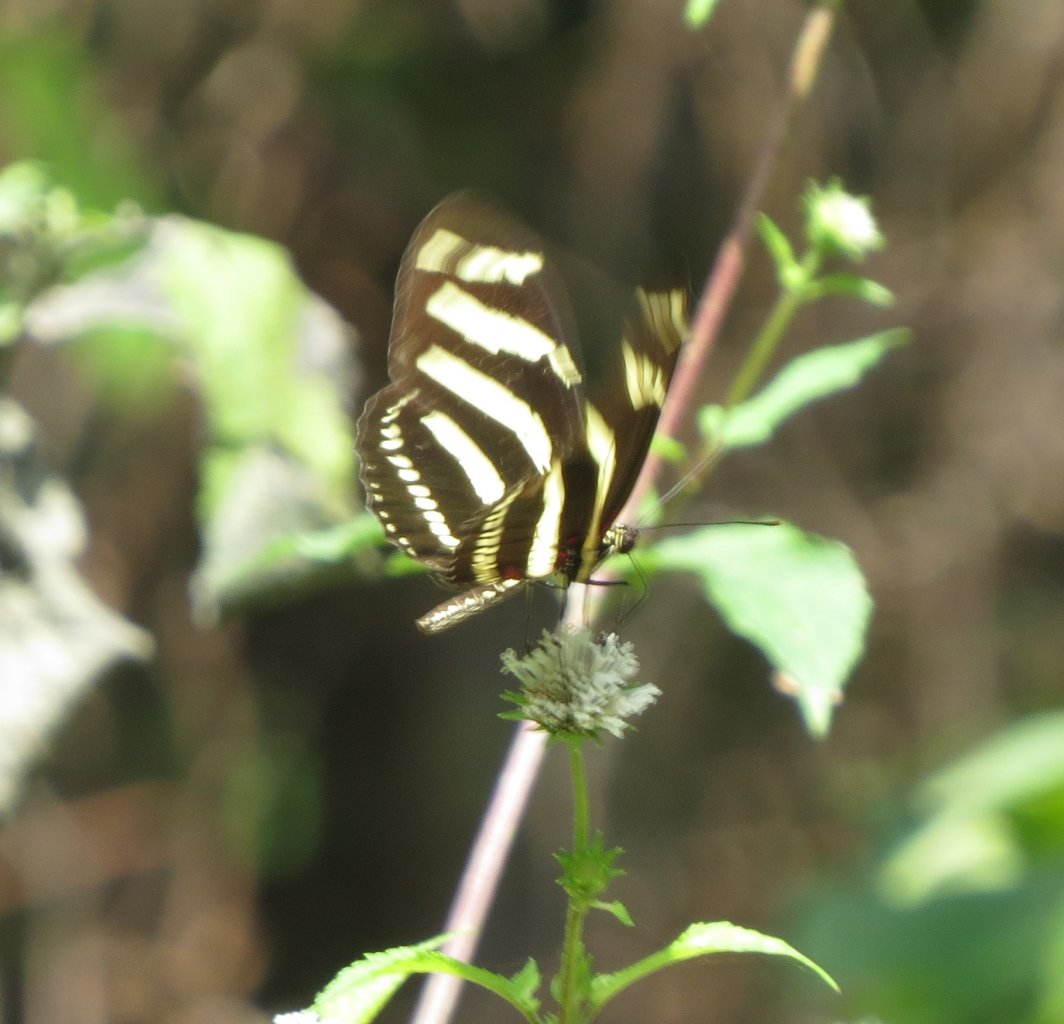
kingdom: Animalia
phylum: Arthropoda
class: Insecta
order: Lepidoptera
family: Nymphalidae
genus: Heliconius
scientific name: Heliconius charithonia
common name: Zebra Longwing
